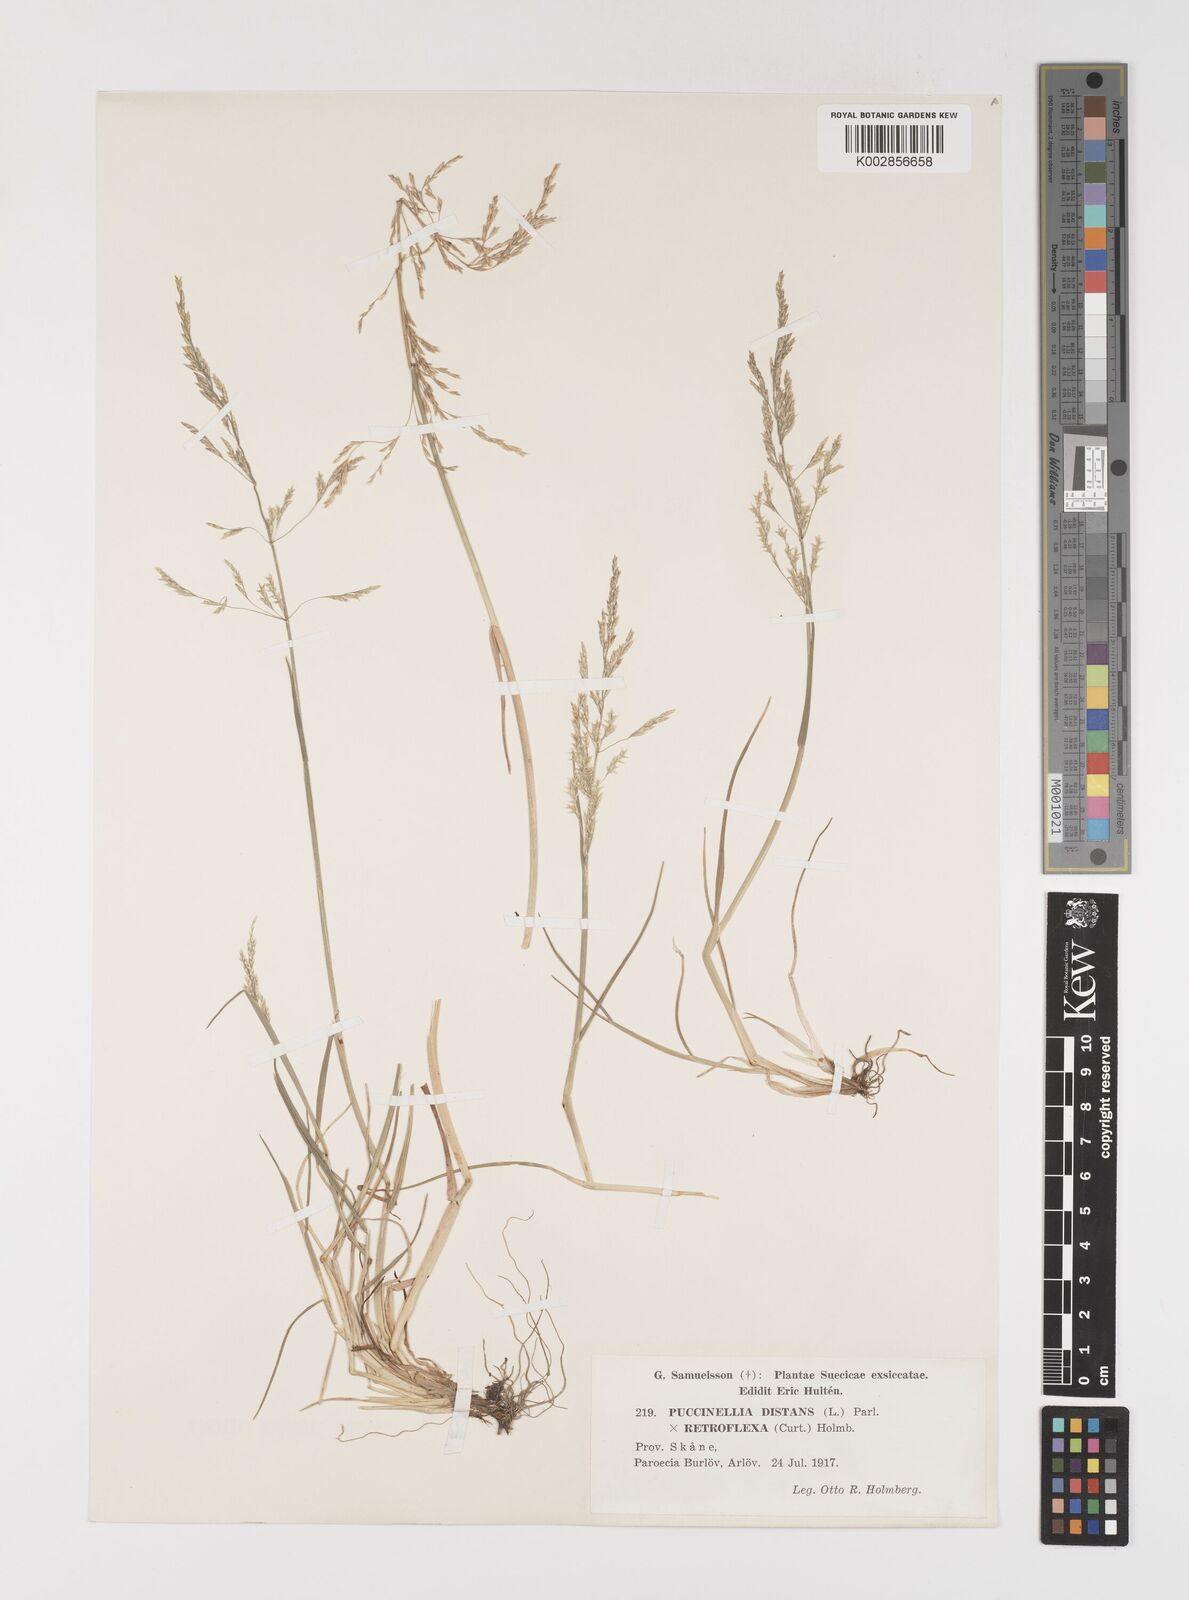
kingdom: Plantae
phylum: Tracheophyta
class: Liliopsida
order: Poales
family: Poaceae
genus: Puccinellia
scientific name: Puccinellia
